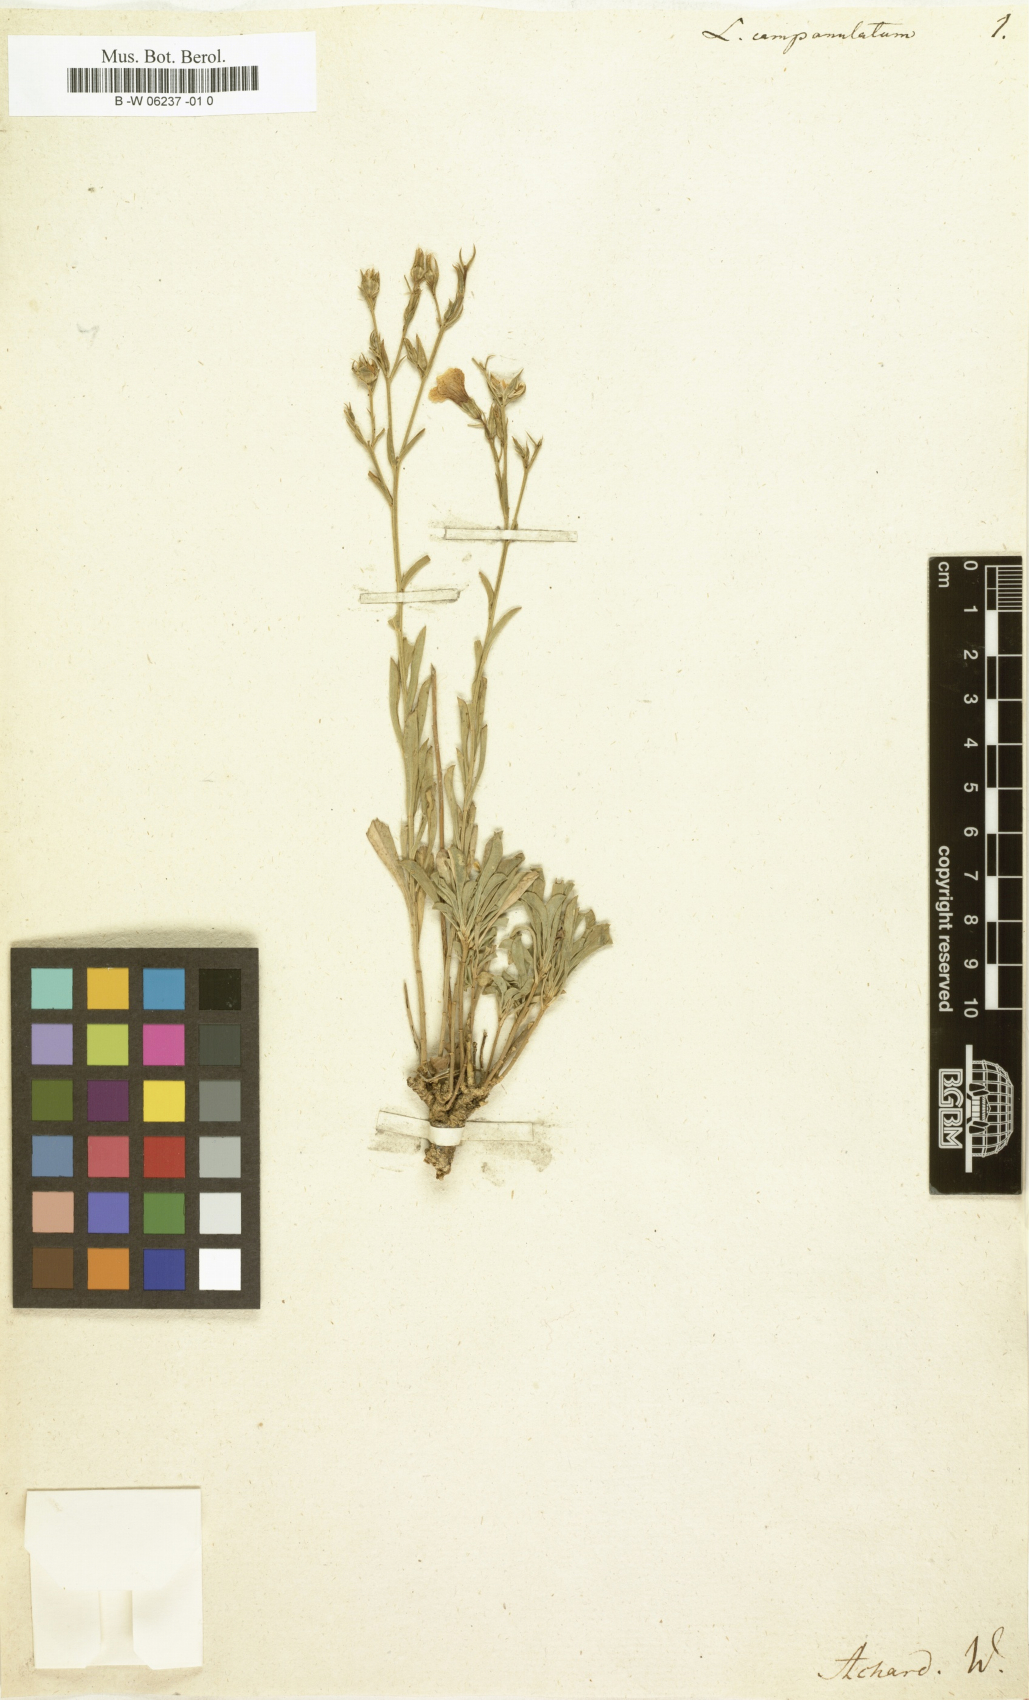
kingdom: Plantae
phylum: Tracheophyta
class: Magnoliopsida
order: Malpighiales
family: Linaceae
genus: Linum
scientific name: Linum campanulatum
